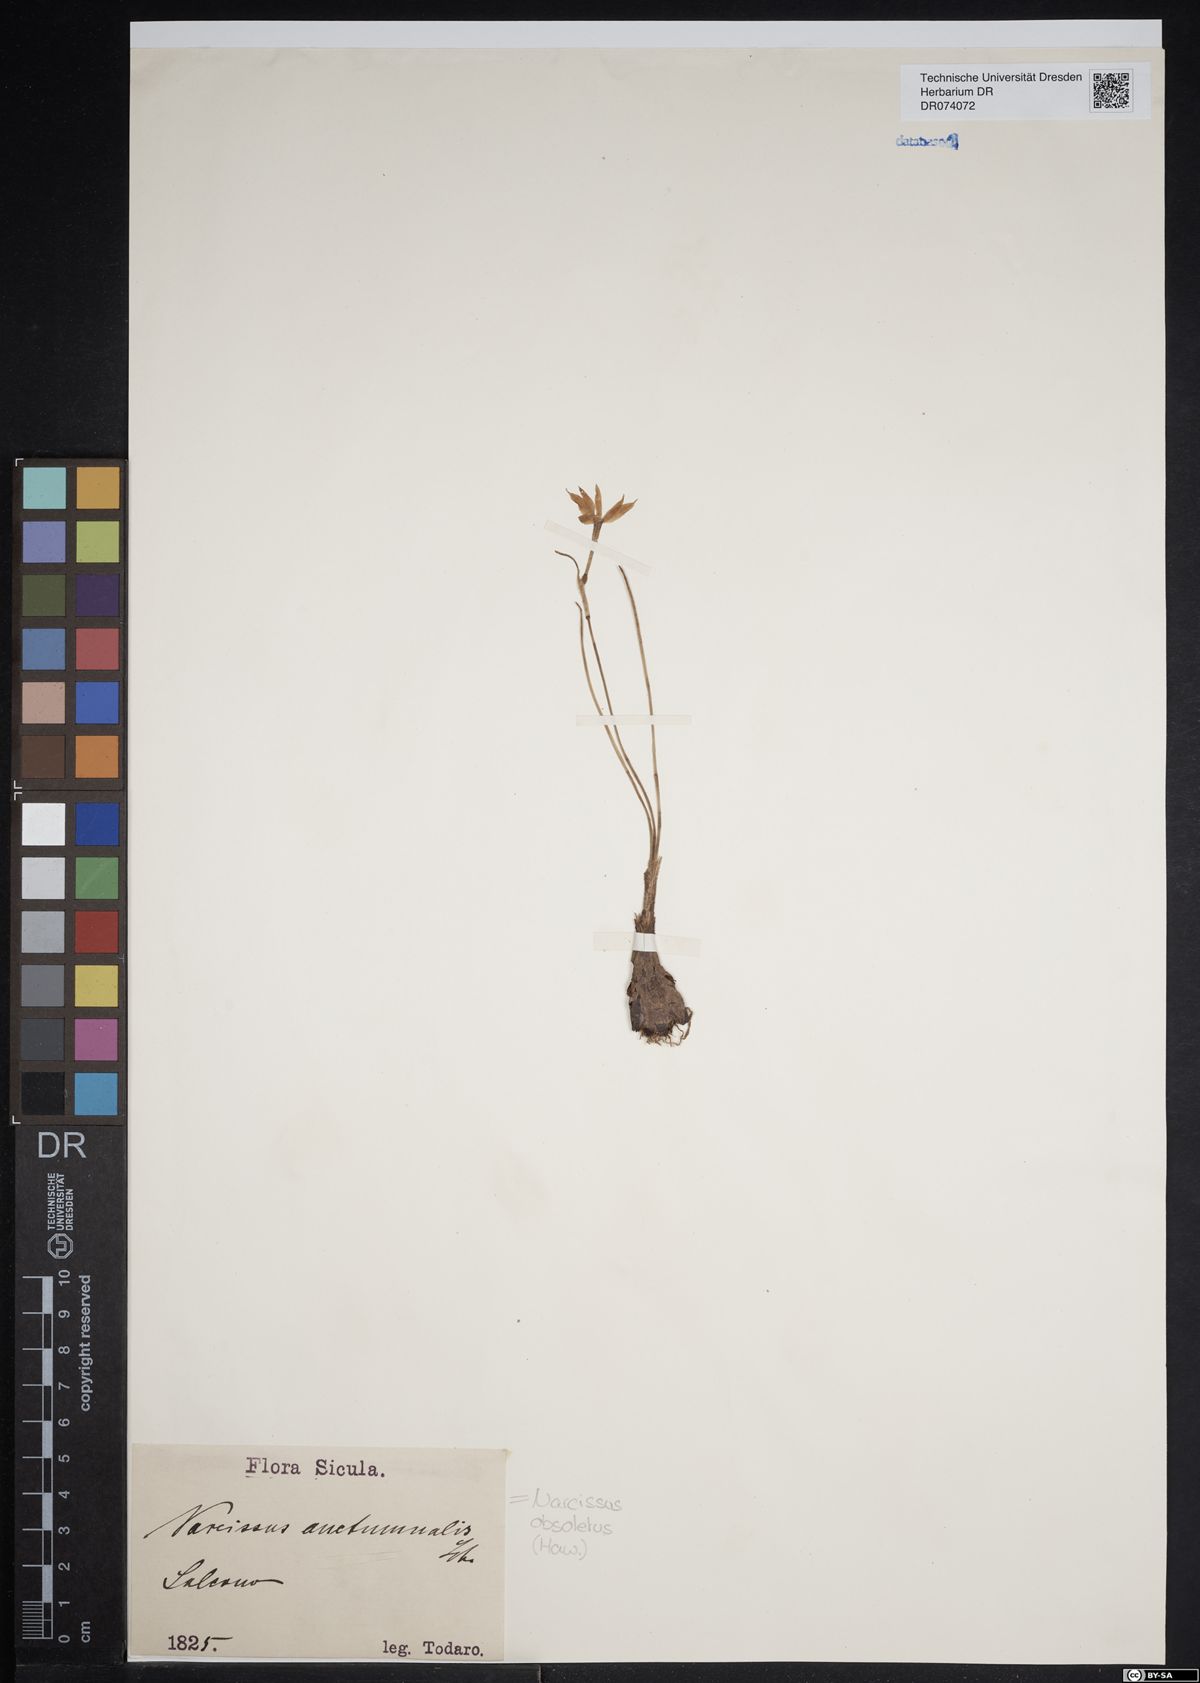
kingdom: Plantae
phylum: Tracheophyta
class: Liliopsida
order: Asparagales
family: Amaryllidaceae
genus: Narcissus
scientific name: Narcissus obsoletus
